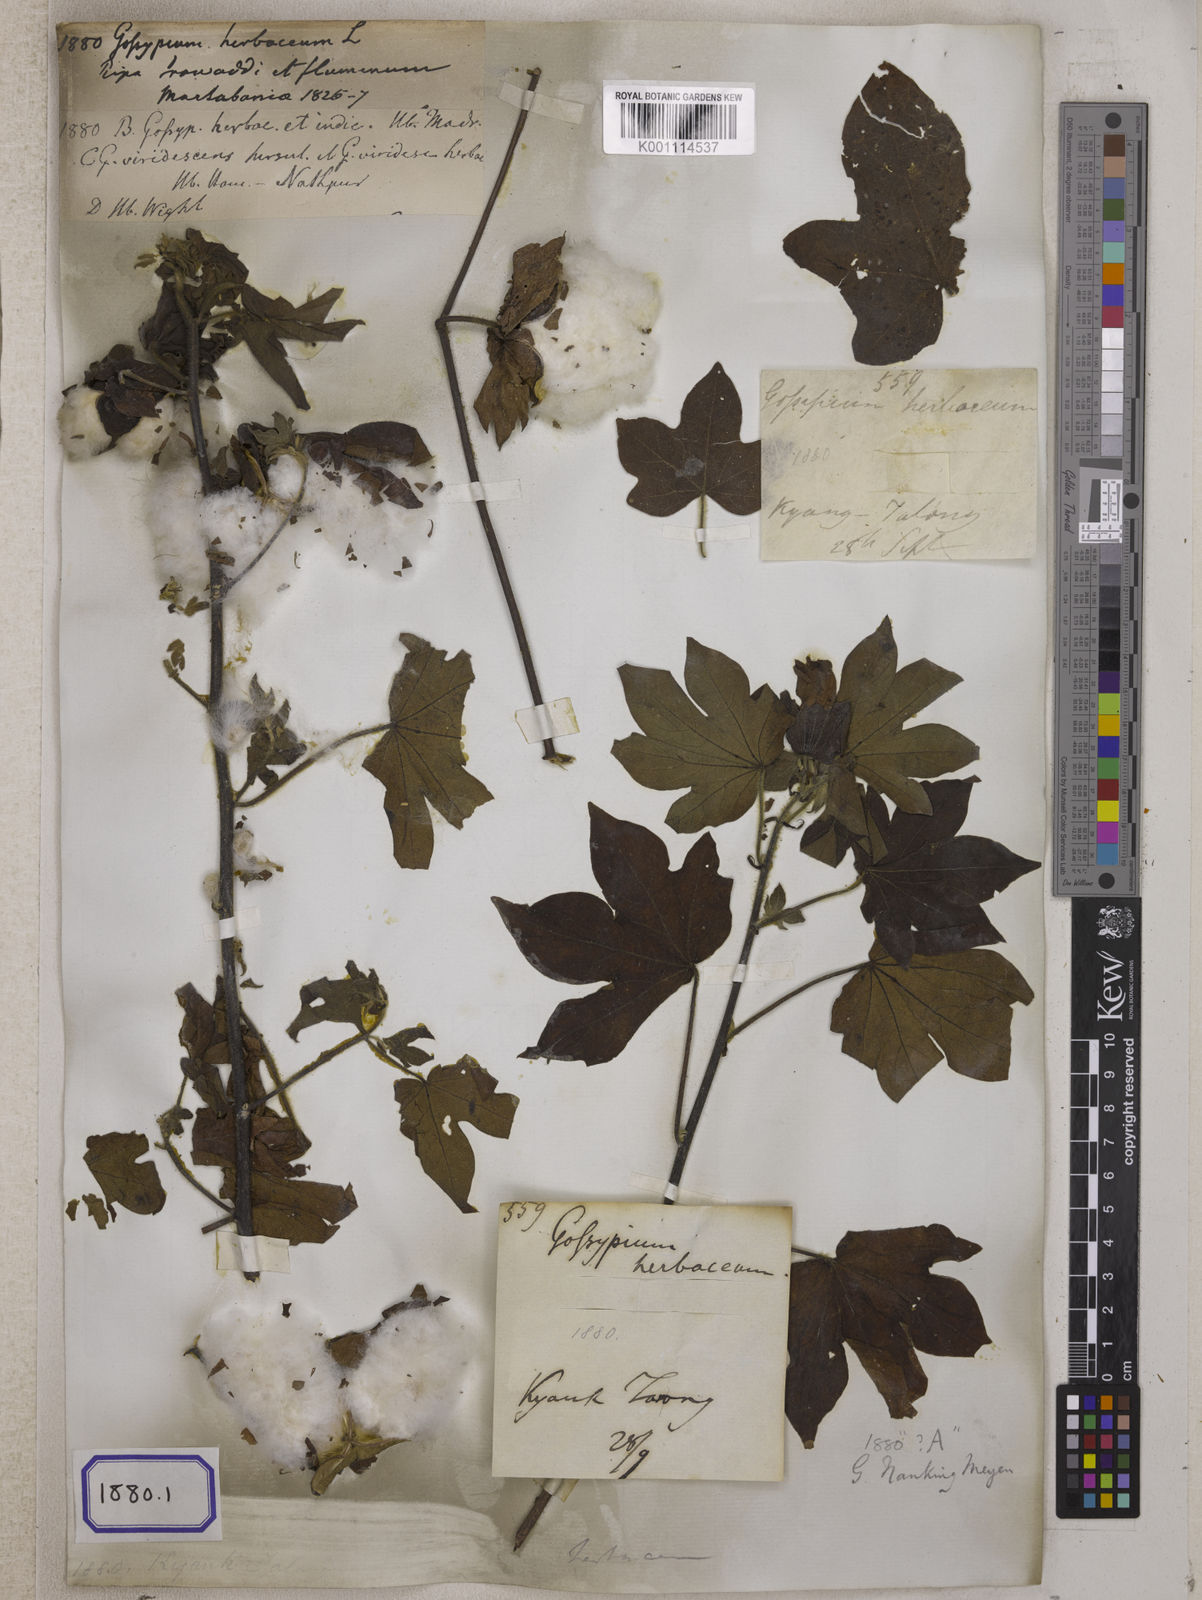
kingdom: Plantae
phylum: Tracheophyta
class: Magnoliopsida
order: Malvales
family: Malvaceae
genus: Gossypium
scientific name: Gossypium herbaceum
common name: Levant cotton
